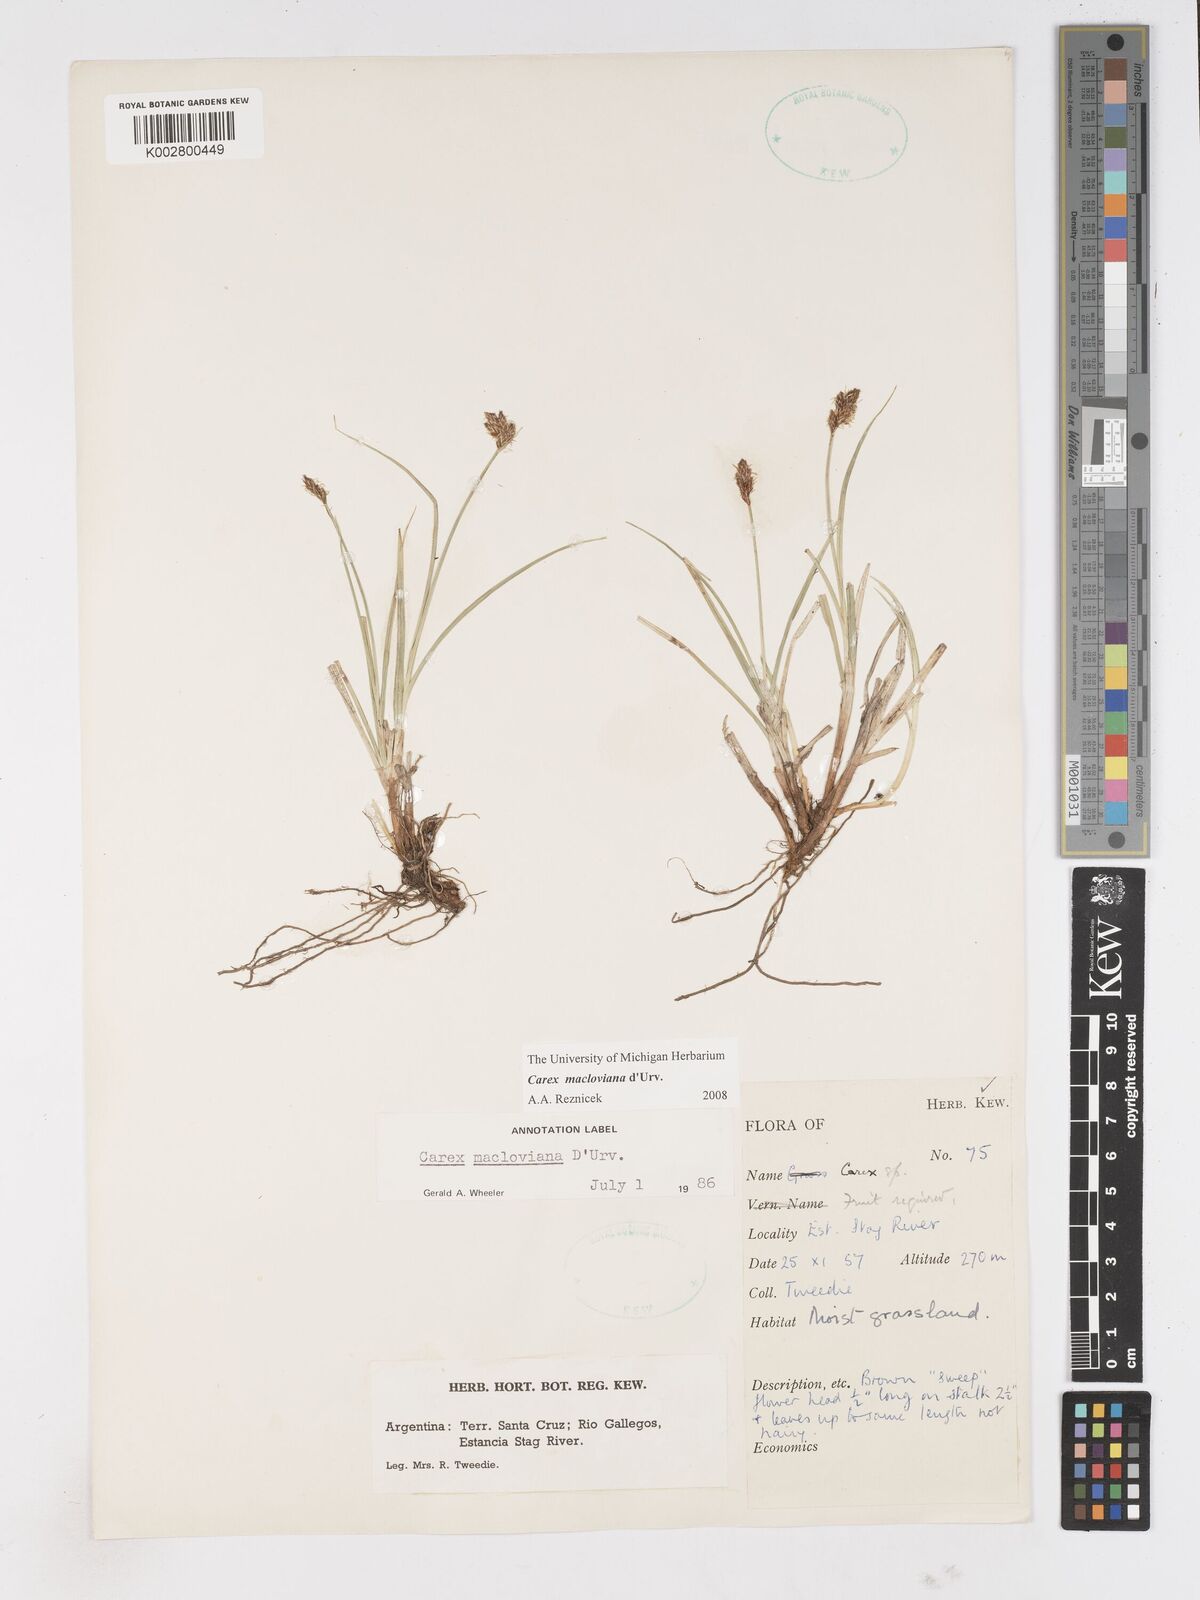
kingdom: Plantae
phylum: Tracheophyta
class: Liliopsida
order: Poales
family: Cyperaceae
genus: Carex
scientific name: Carex subfusca
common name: Brown sedge
